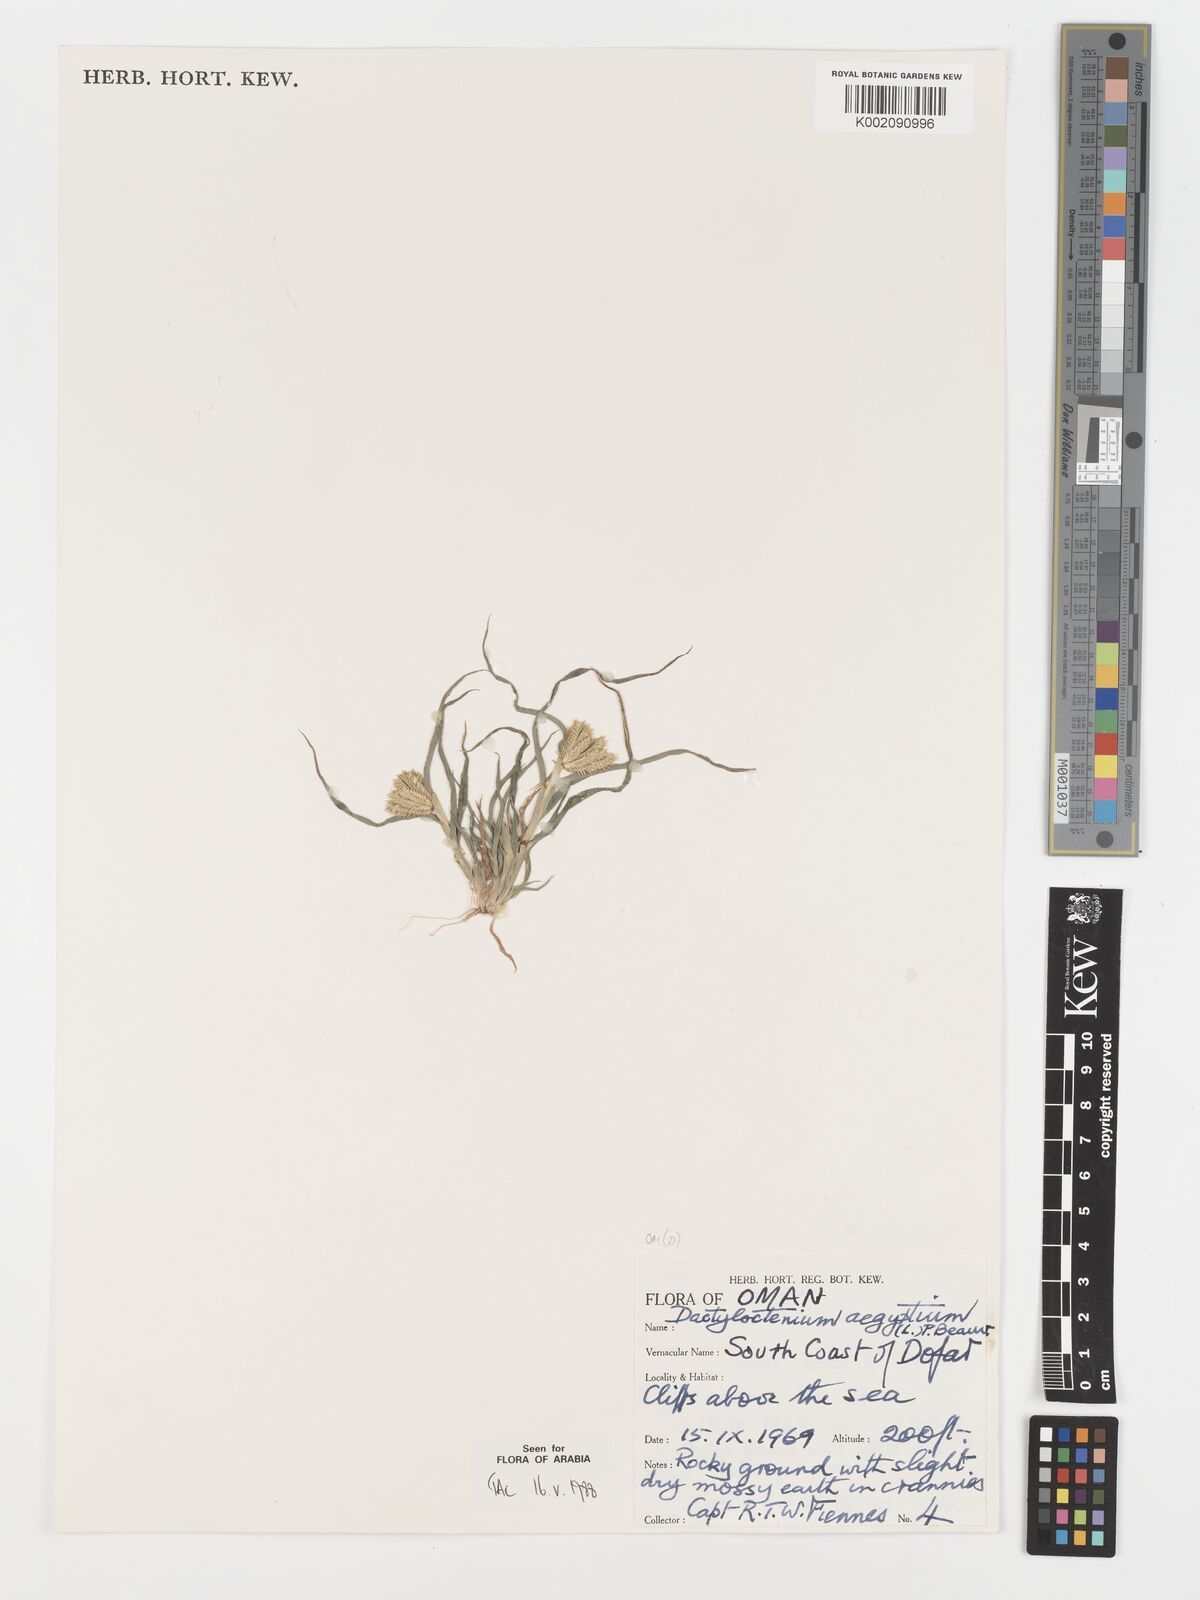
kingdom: Plantae
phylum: Tracheophyta
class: Liliopsida
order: Poales
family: Poaceae
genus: Dactyloctenium
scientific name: Dactyloctenium aegyptium
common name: Egyptian grass
